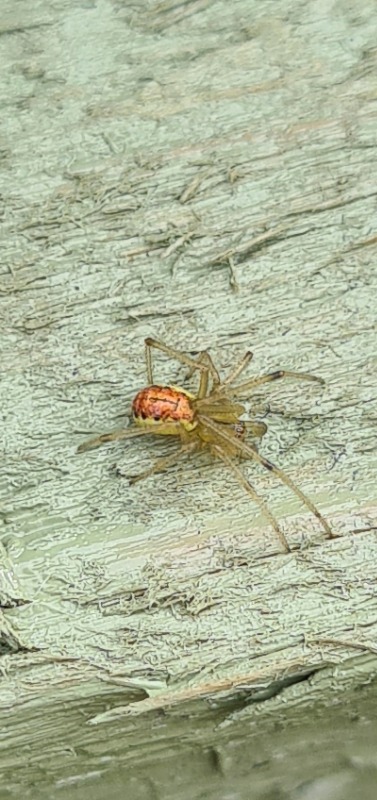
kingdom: Animalia
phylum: Arthropoda
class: Arachnida
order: Araneae
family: Theridiidae
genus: Enoplognatha
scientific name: Enoplognatha ovata
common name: Perleedderkop
